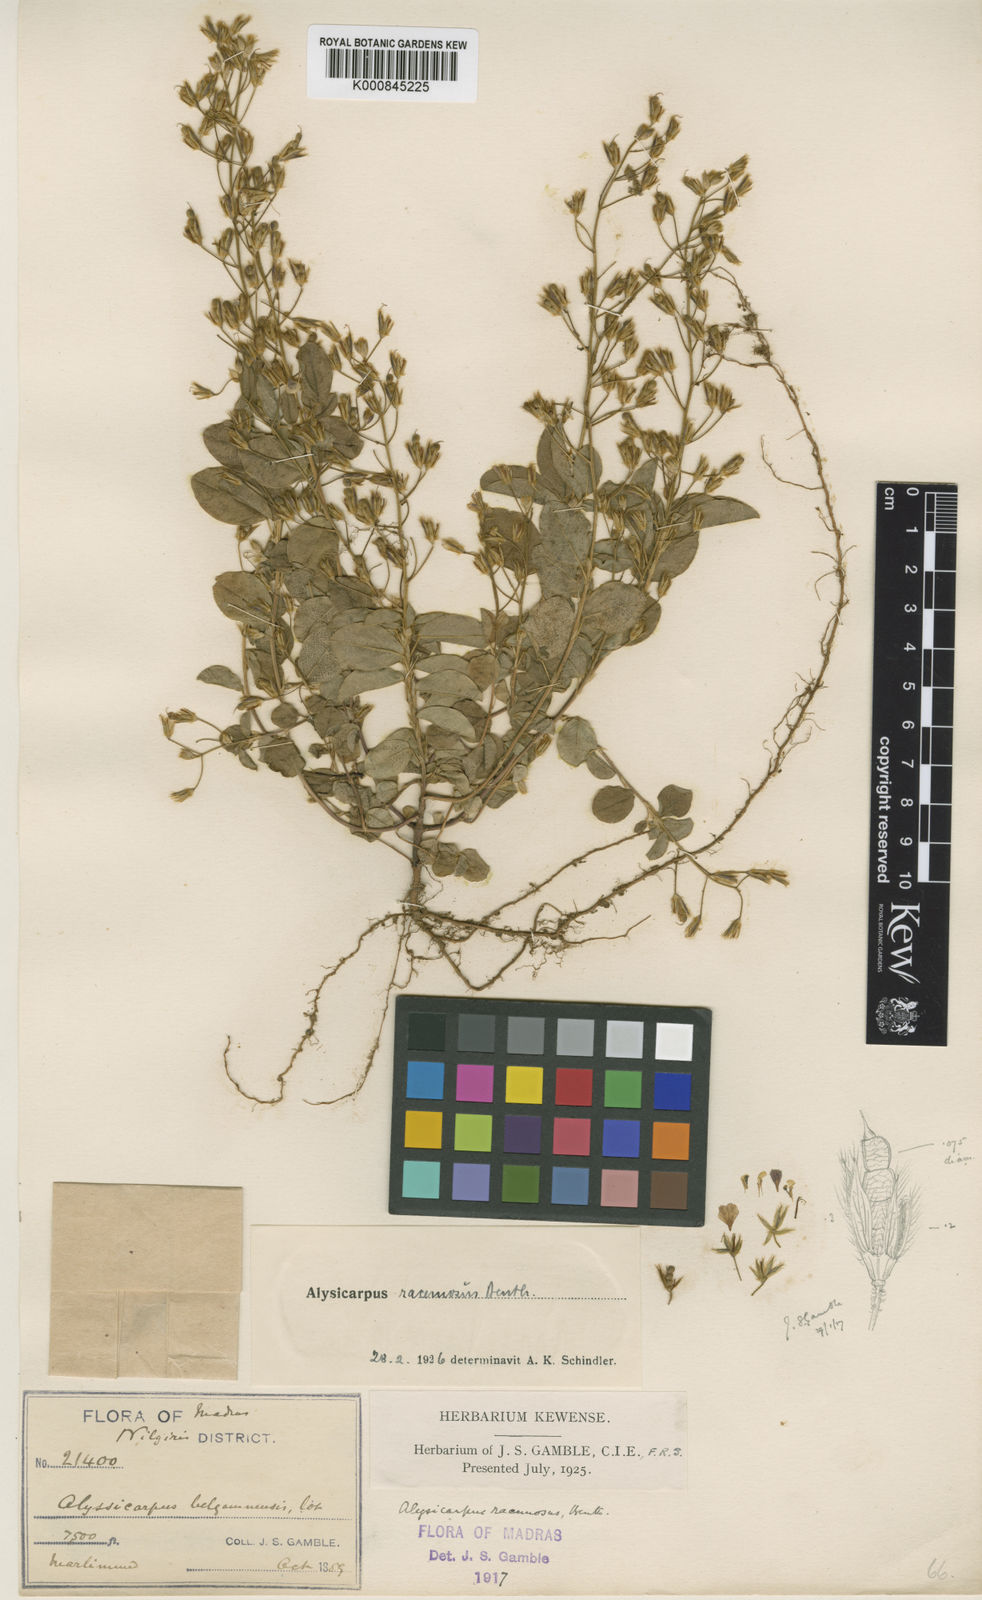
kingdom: Plantae
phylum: Tracheophyta
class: Magnoliopsida
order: Fabales
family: Fabaceae
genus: Alysicarpus
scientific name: Alysicarpus belgaumensis
